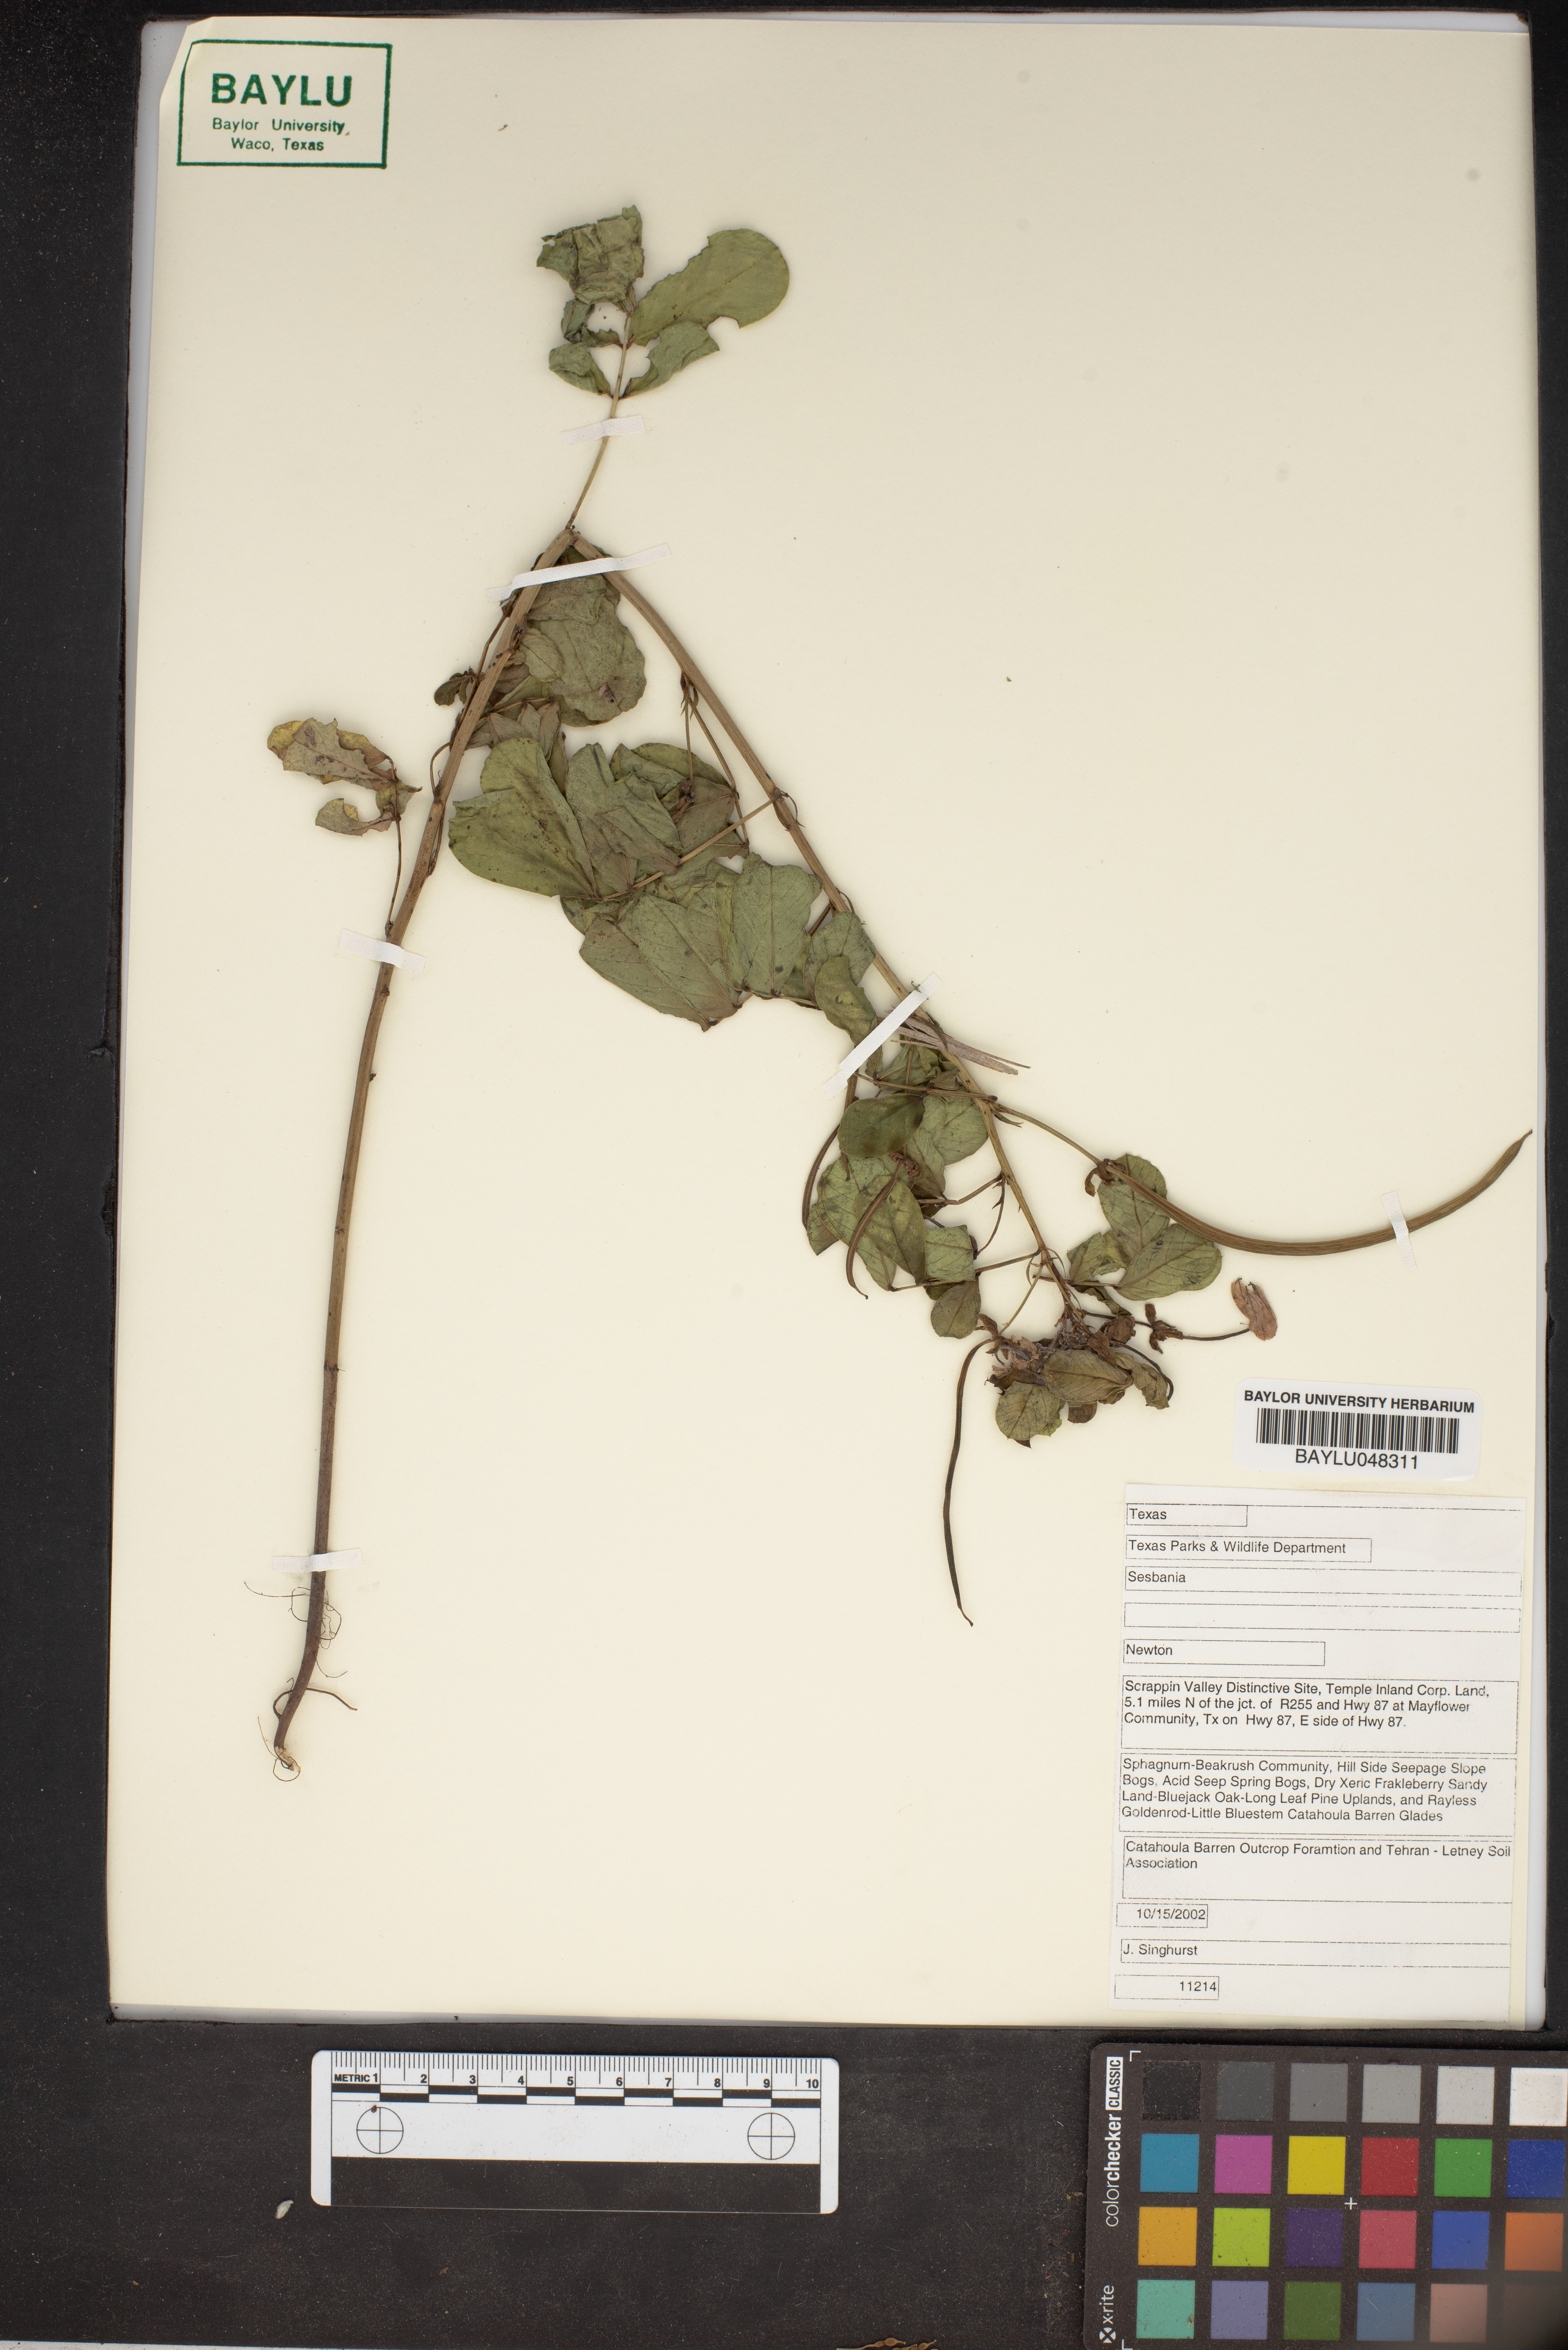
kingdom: Plantae
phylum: Tracheophyta
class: Magnoliopsida
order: Fabales
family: Fabaceae
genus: Sesbania
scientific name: Sesbania
